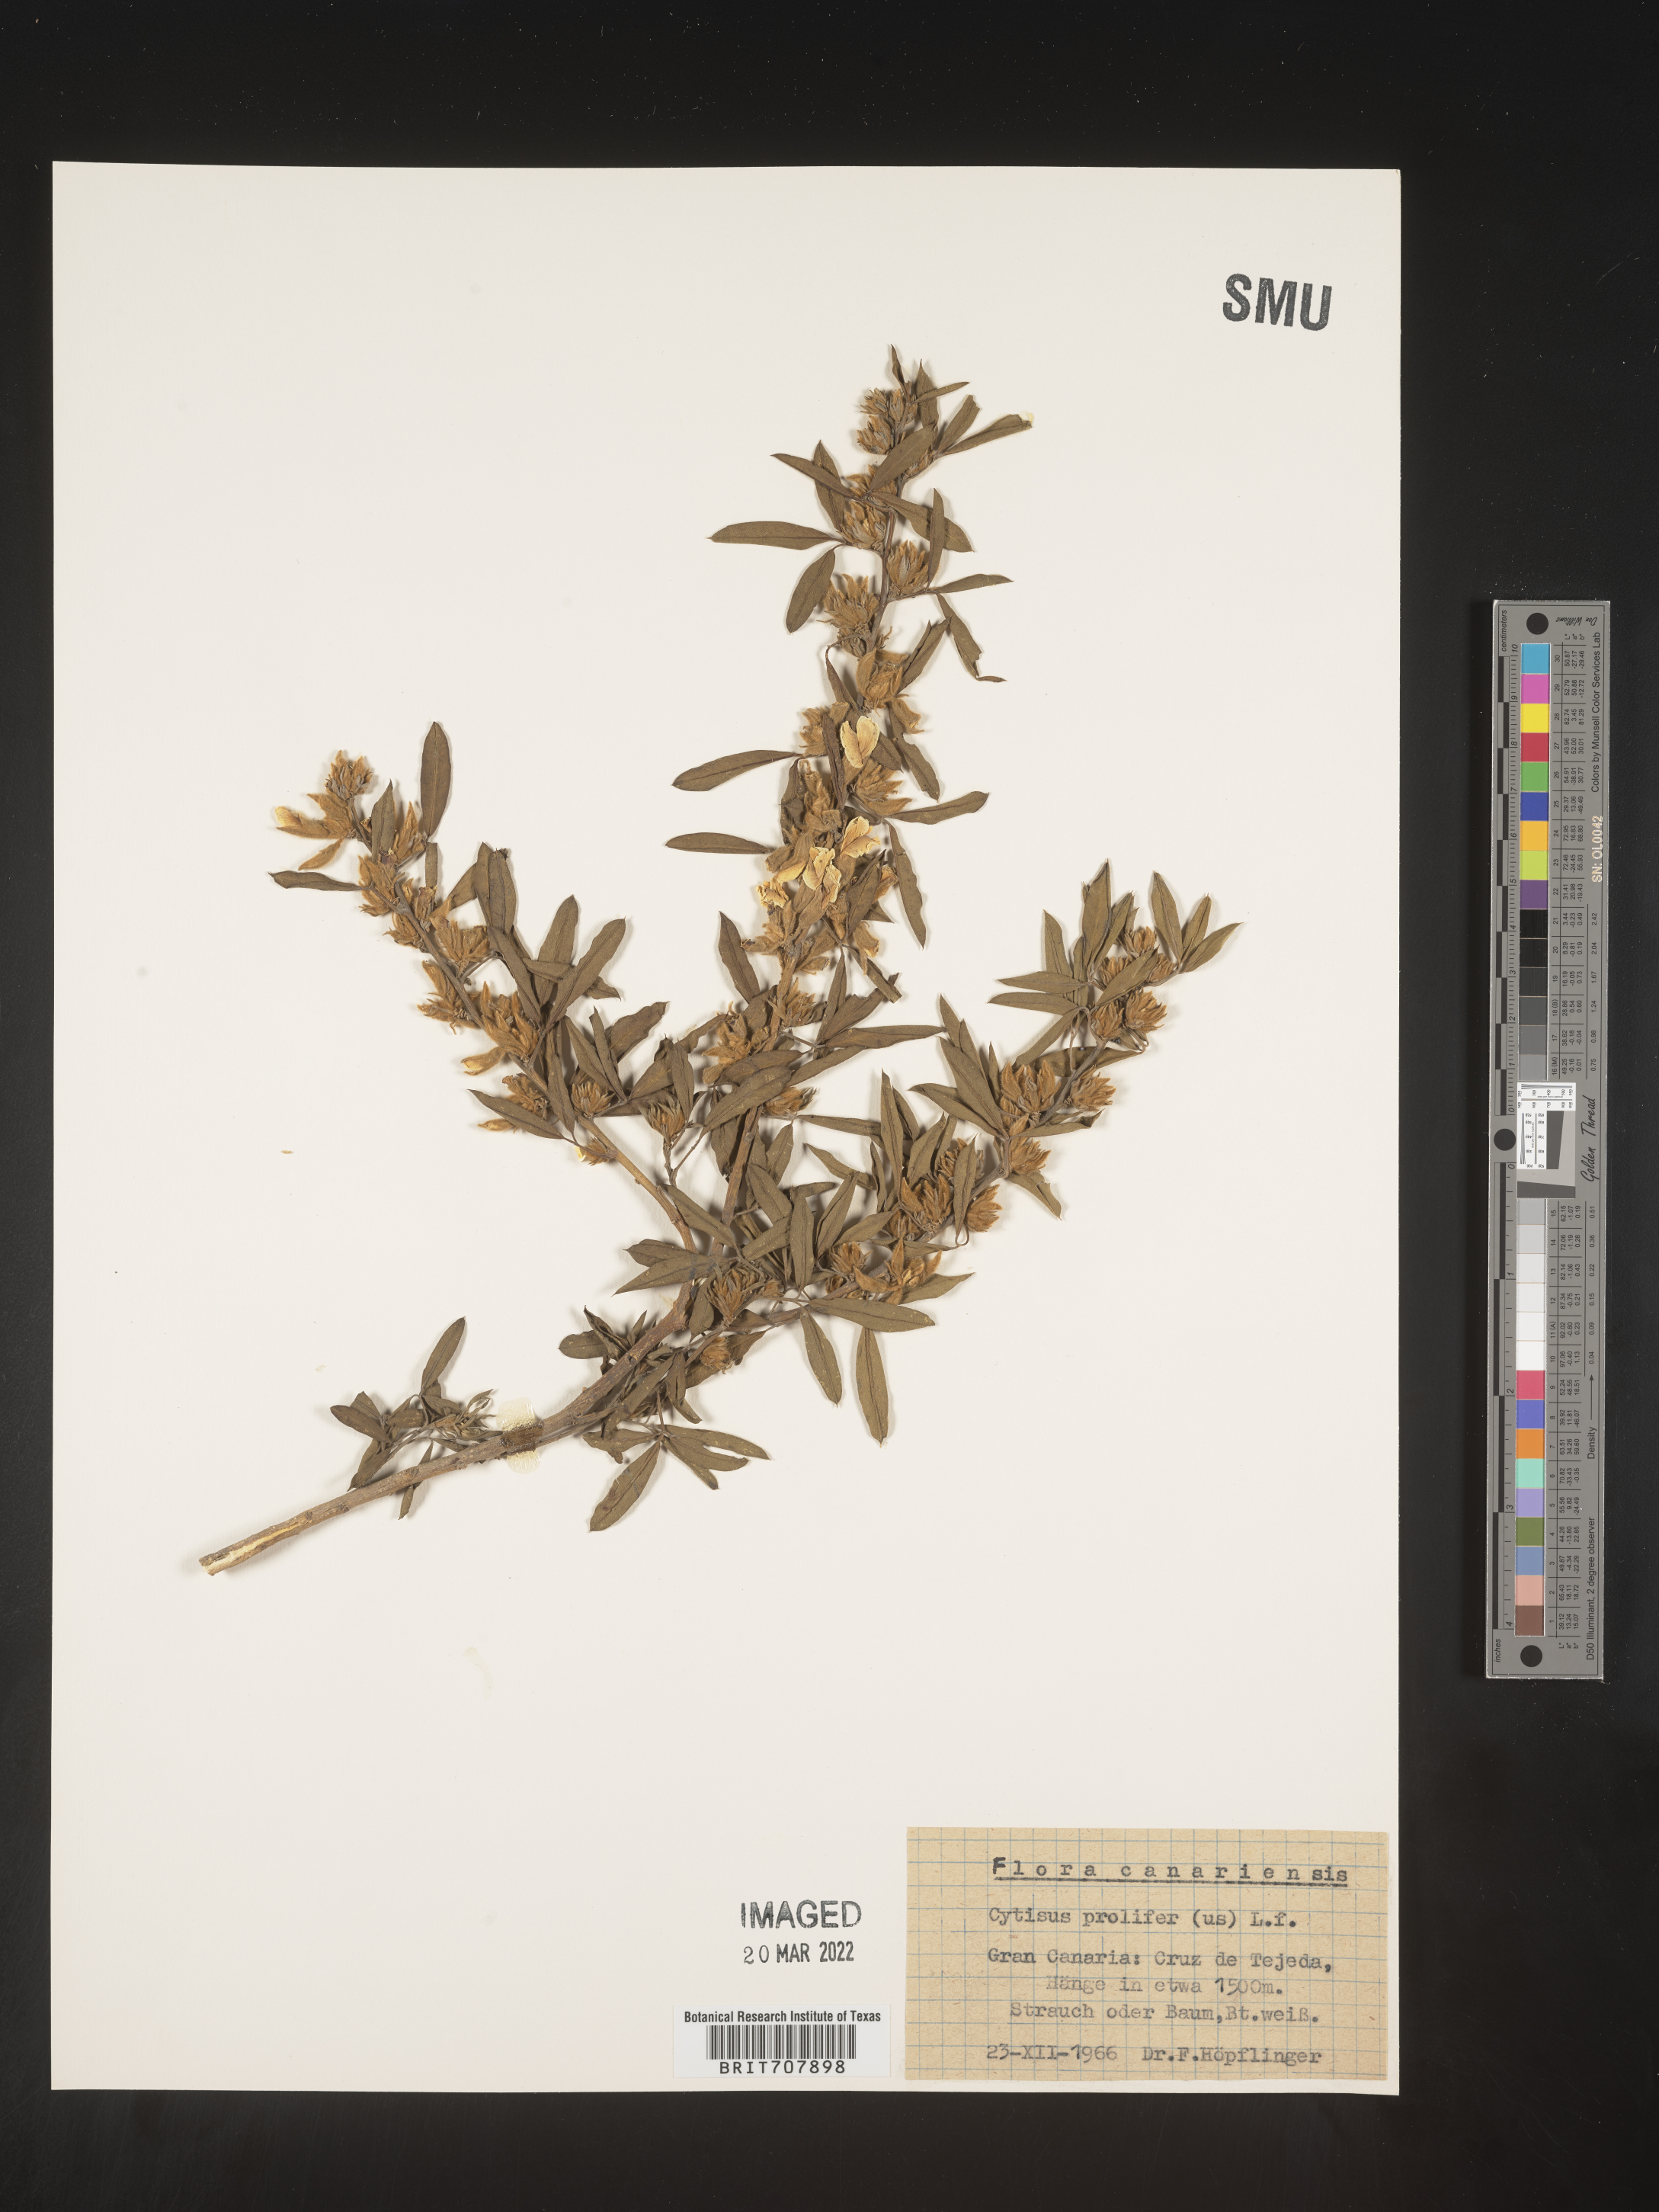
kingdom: Plantae
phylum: Tracheophyta
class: Magnoliopsida
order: Fabales
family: Fabaceae
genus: Cytisus
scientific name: Cytisus
